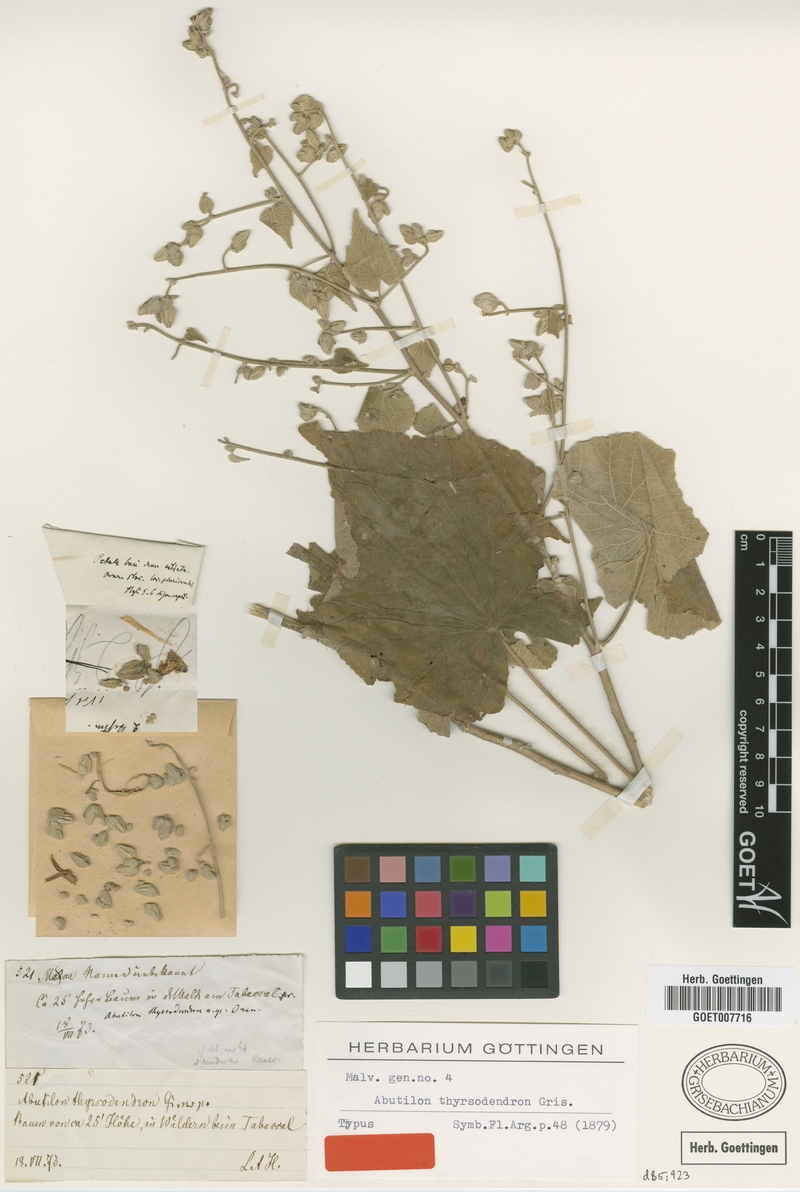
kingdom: Plantae
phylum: Tracheophyta
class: Magnoliopsida
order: Malvales
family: Malvaceae
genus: Abutilon
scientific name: Abutilon thyrsodendron
